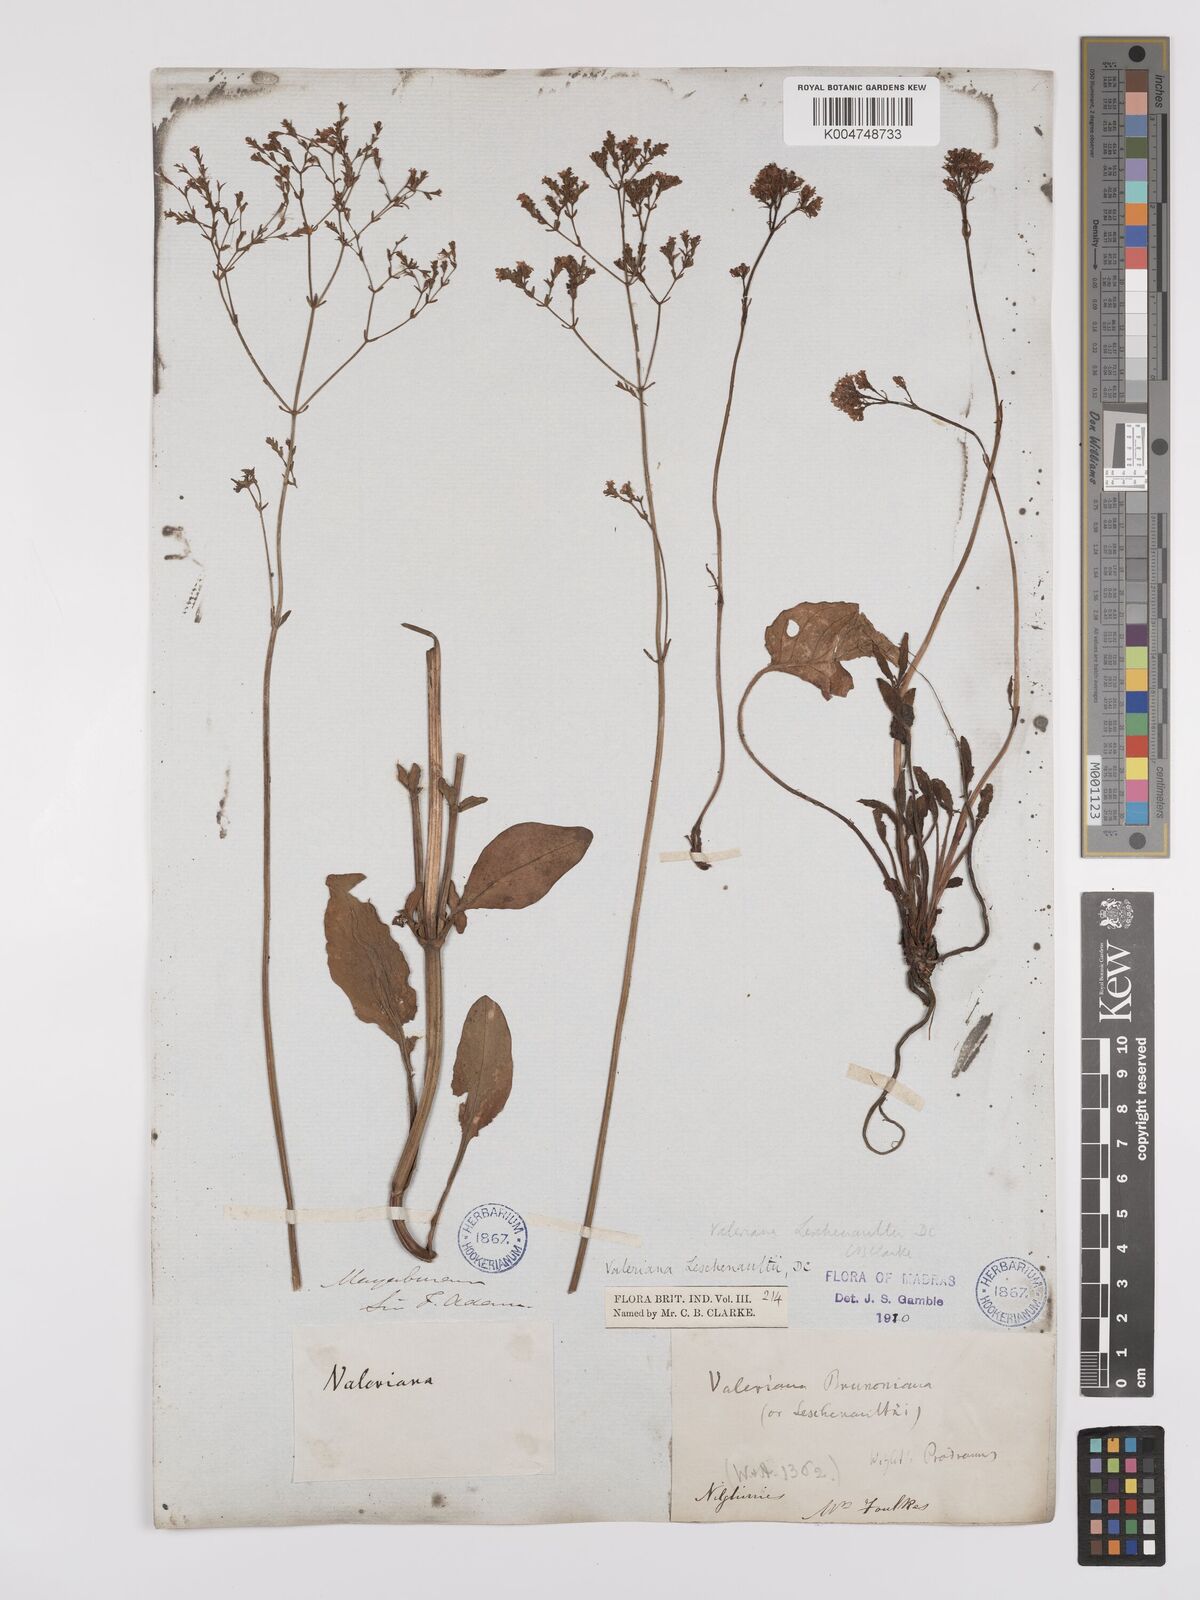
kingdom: Plantae
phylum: Tracheophyta
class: Magnoliopsida
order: Dipsacales
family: Caprifoliaceae
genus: Valeriana
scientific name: Valeriana leschenaultii
